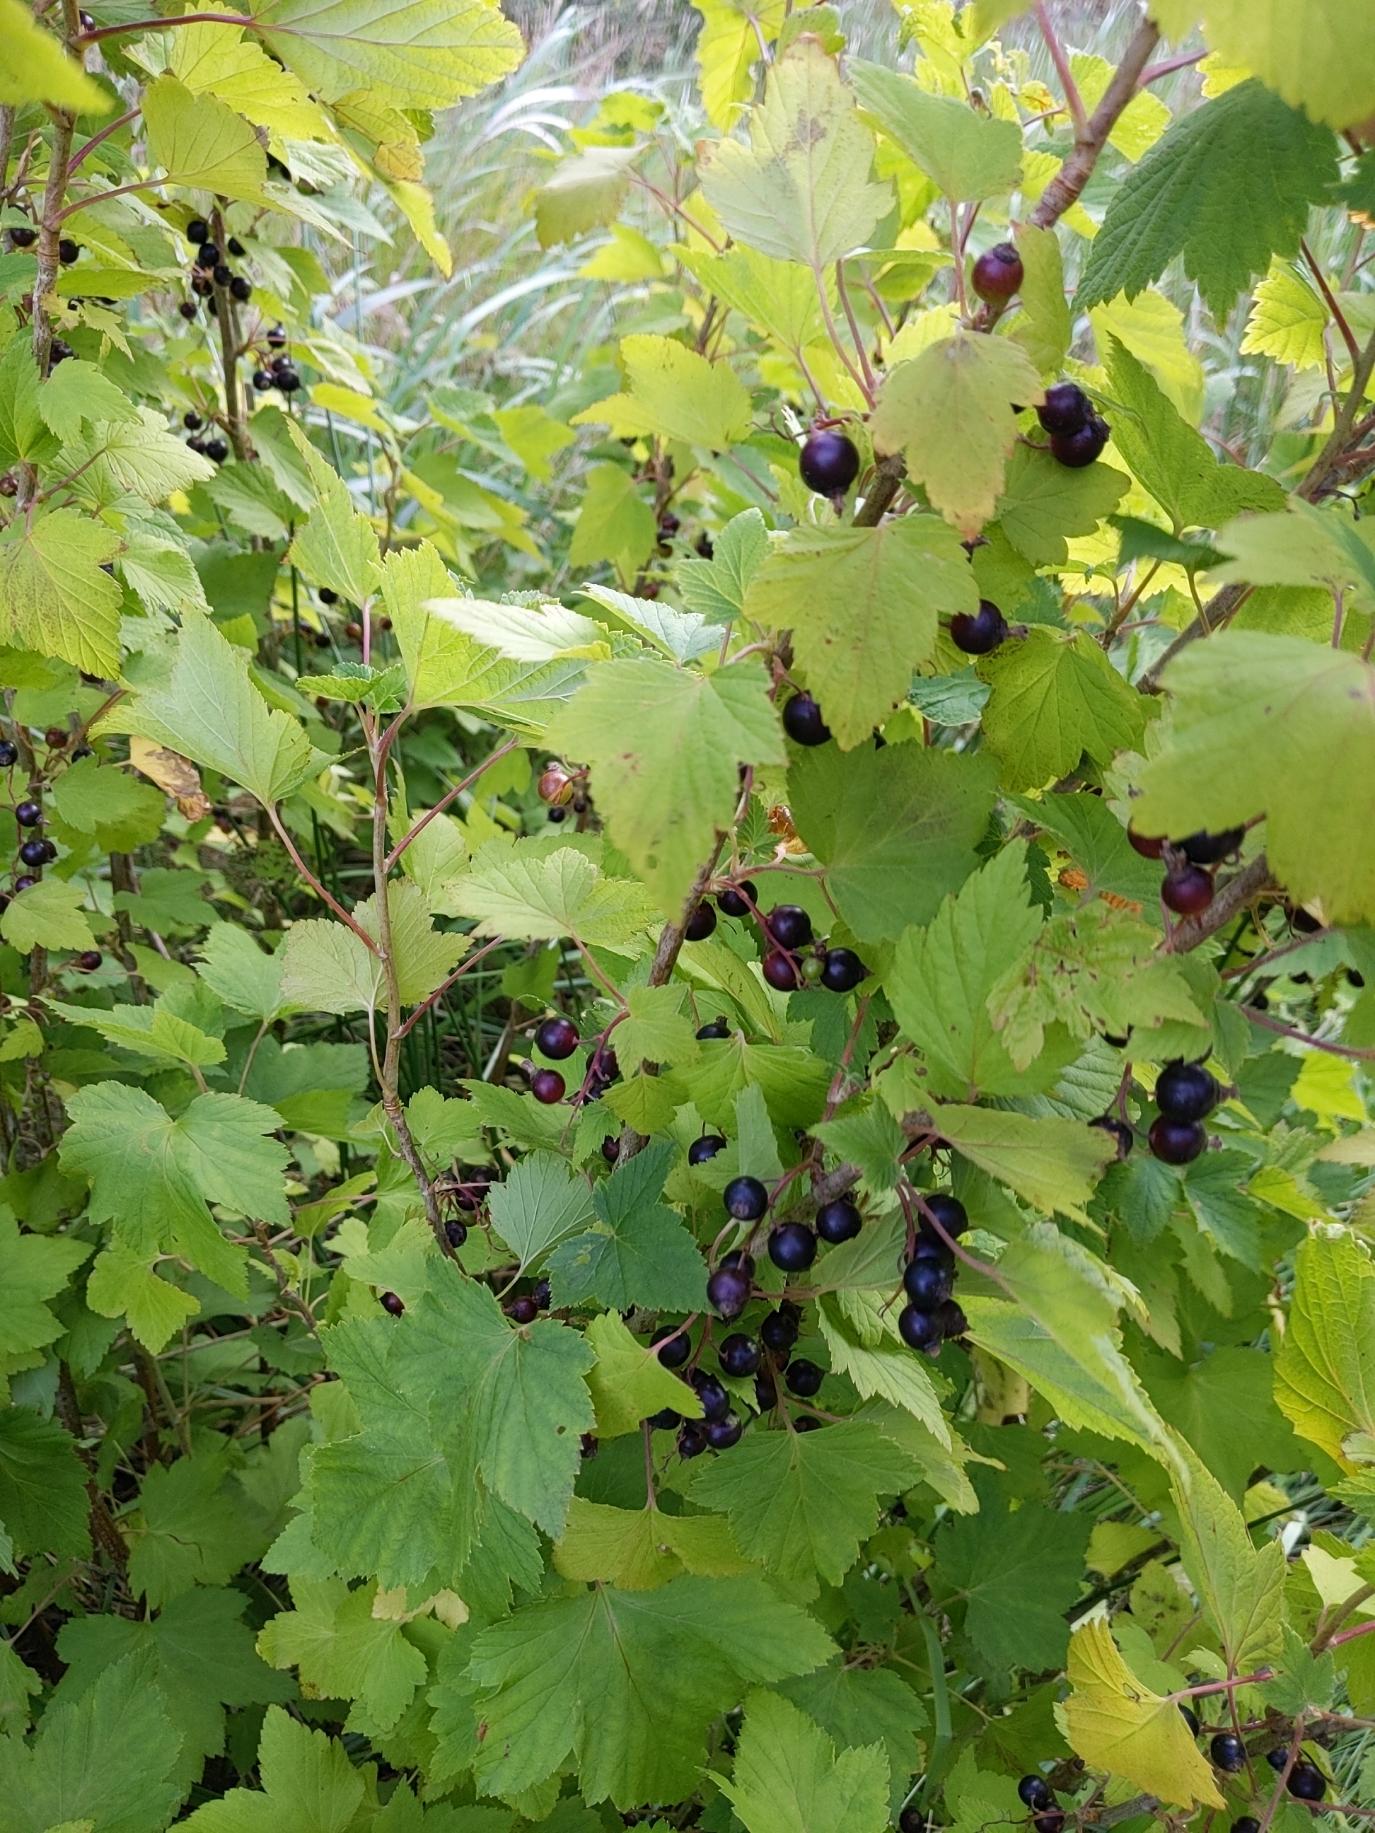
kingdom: Plantae
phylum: Tracheophyta
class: Magnoliopsida
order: Saxifragales
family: Grossulariaceae
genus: Ribes
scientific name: Ribes nigrum
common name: Solbær
